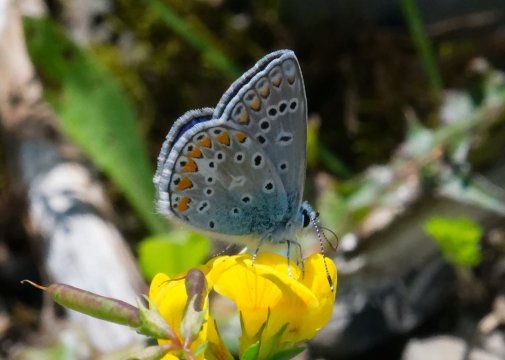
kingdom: Animalia
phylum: Arthropoda
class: Insecta
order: Lepidoptera
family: Lycaenidae
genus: Polyommatus
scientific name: Polyommatus icarus
